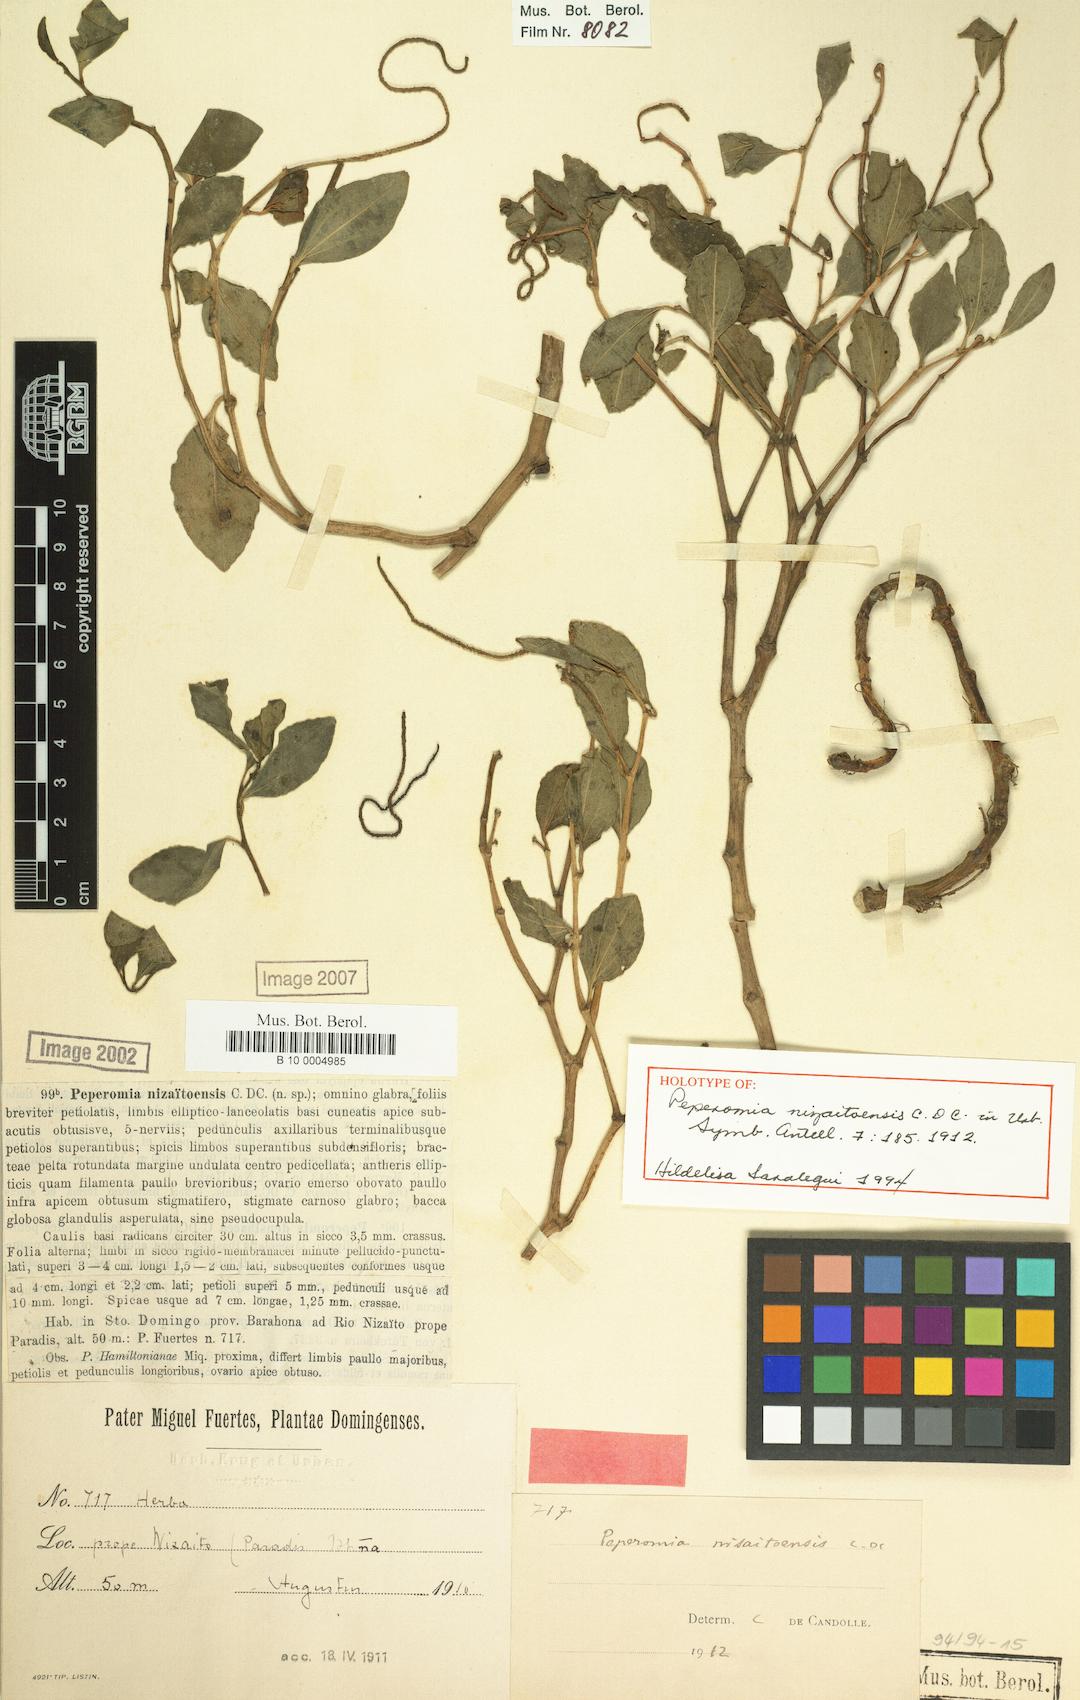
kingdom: Plantae
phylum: Tracheophyta
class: Magnoliopsida
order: Piperales
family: Piperaceae
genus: Peperomia
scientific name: Peperomia nizaitoensis
